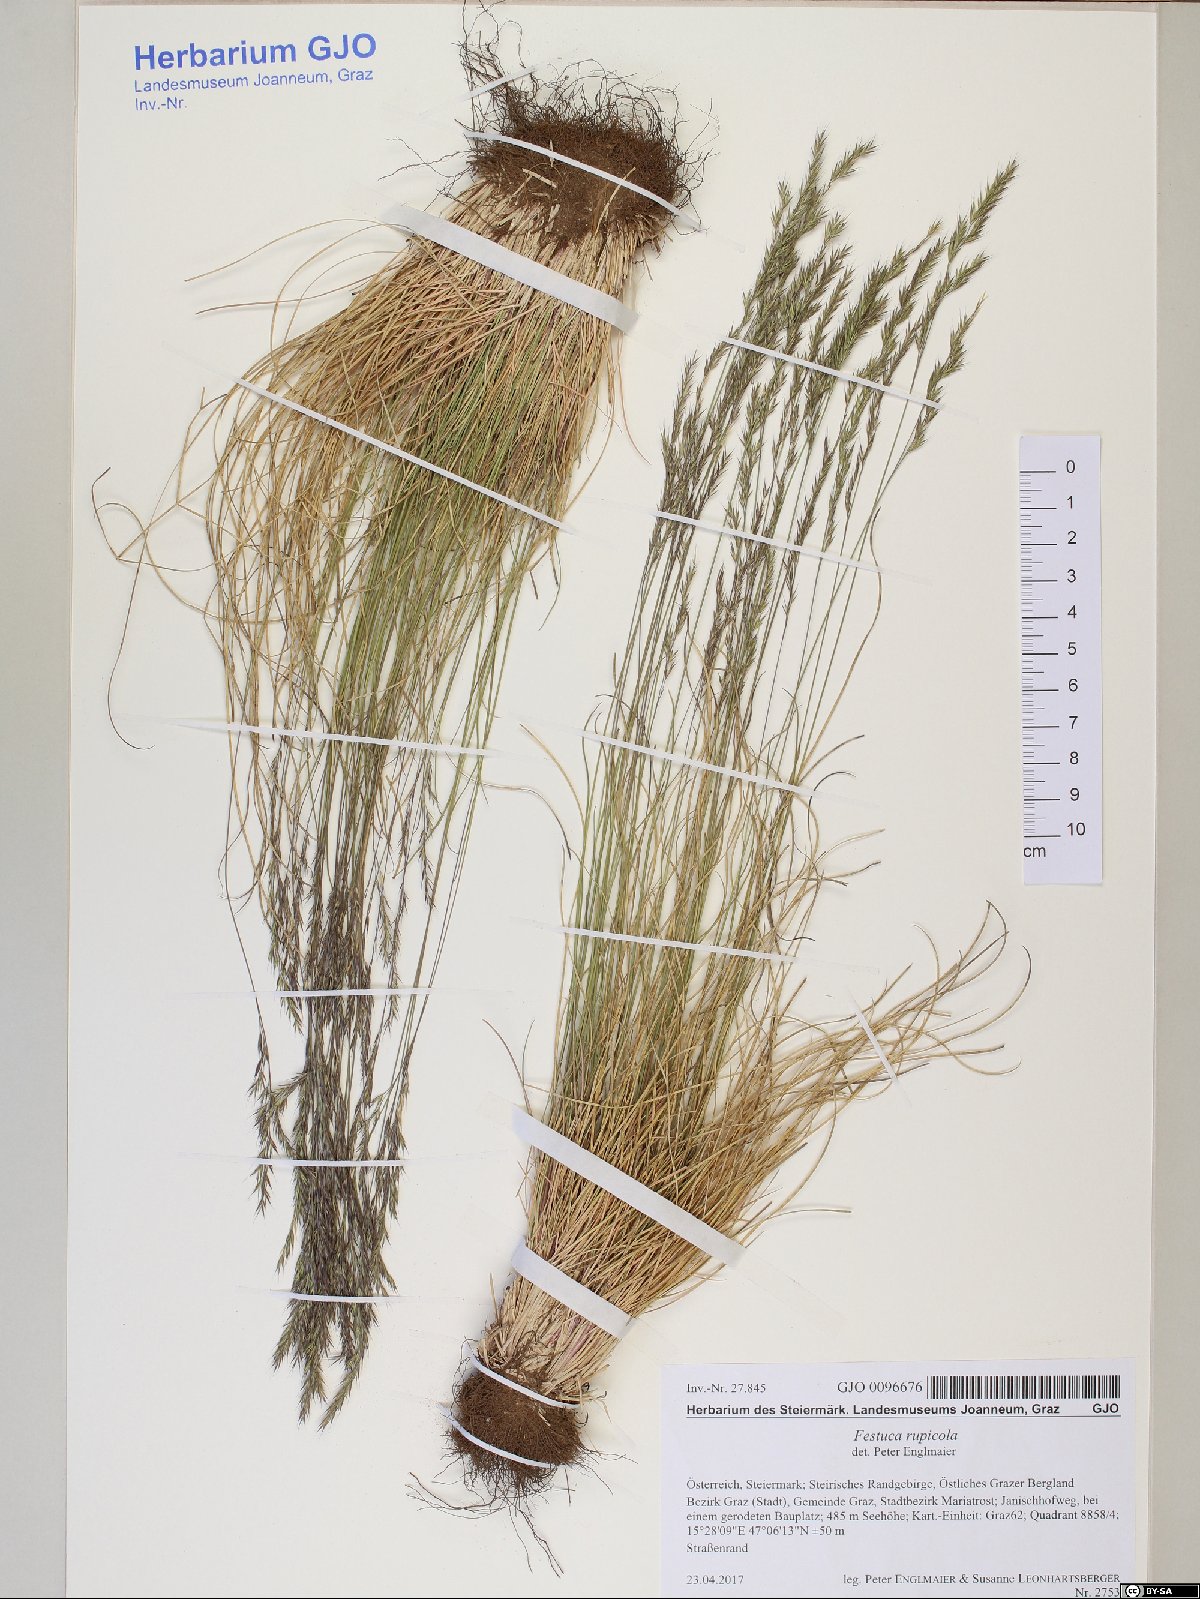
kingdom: Plantae
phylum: Tracheophyta
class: Liliopsida
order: Poales
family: Poaceae
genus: Festuca
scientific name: Festuca rupicola
